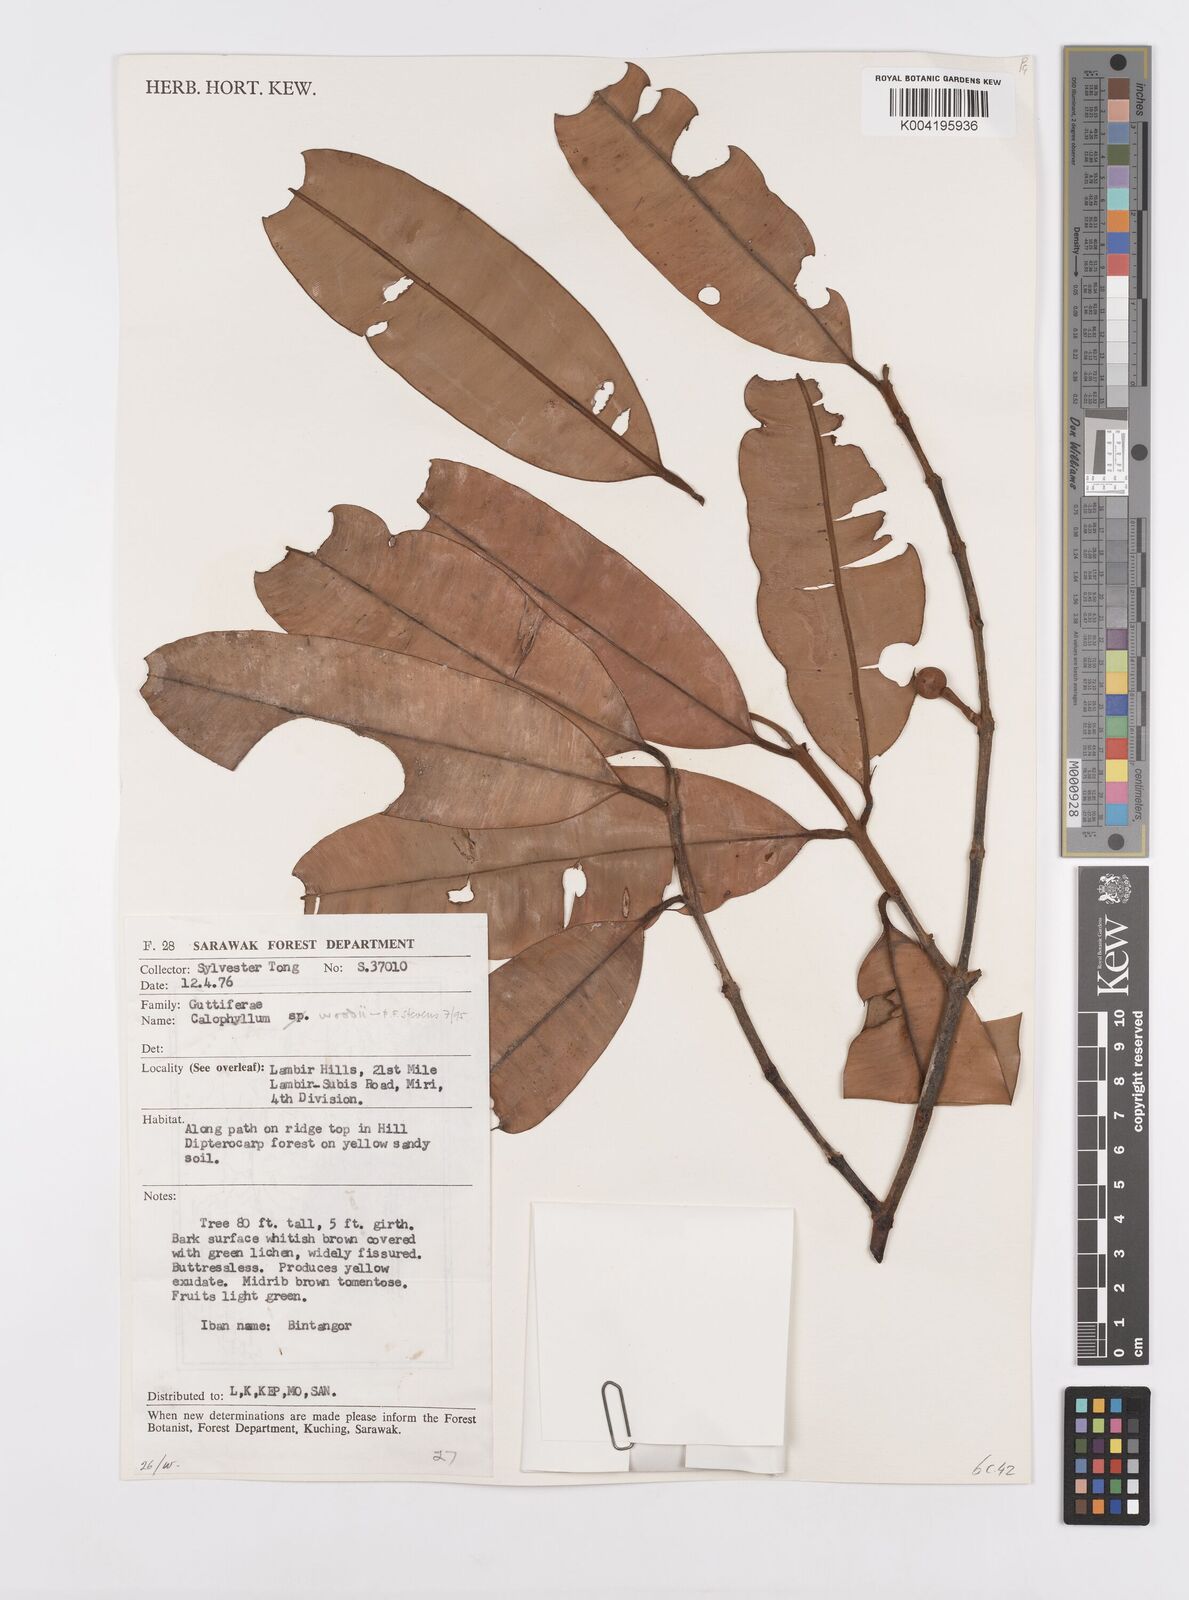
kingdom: Plantae
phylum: Tracheophyta
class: Magnoliopsida
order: Malpighiales
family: Calophyllaceae
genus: Calophyllum
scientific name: Calophyllum woodii
